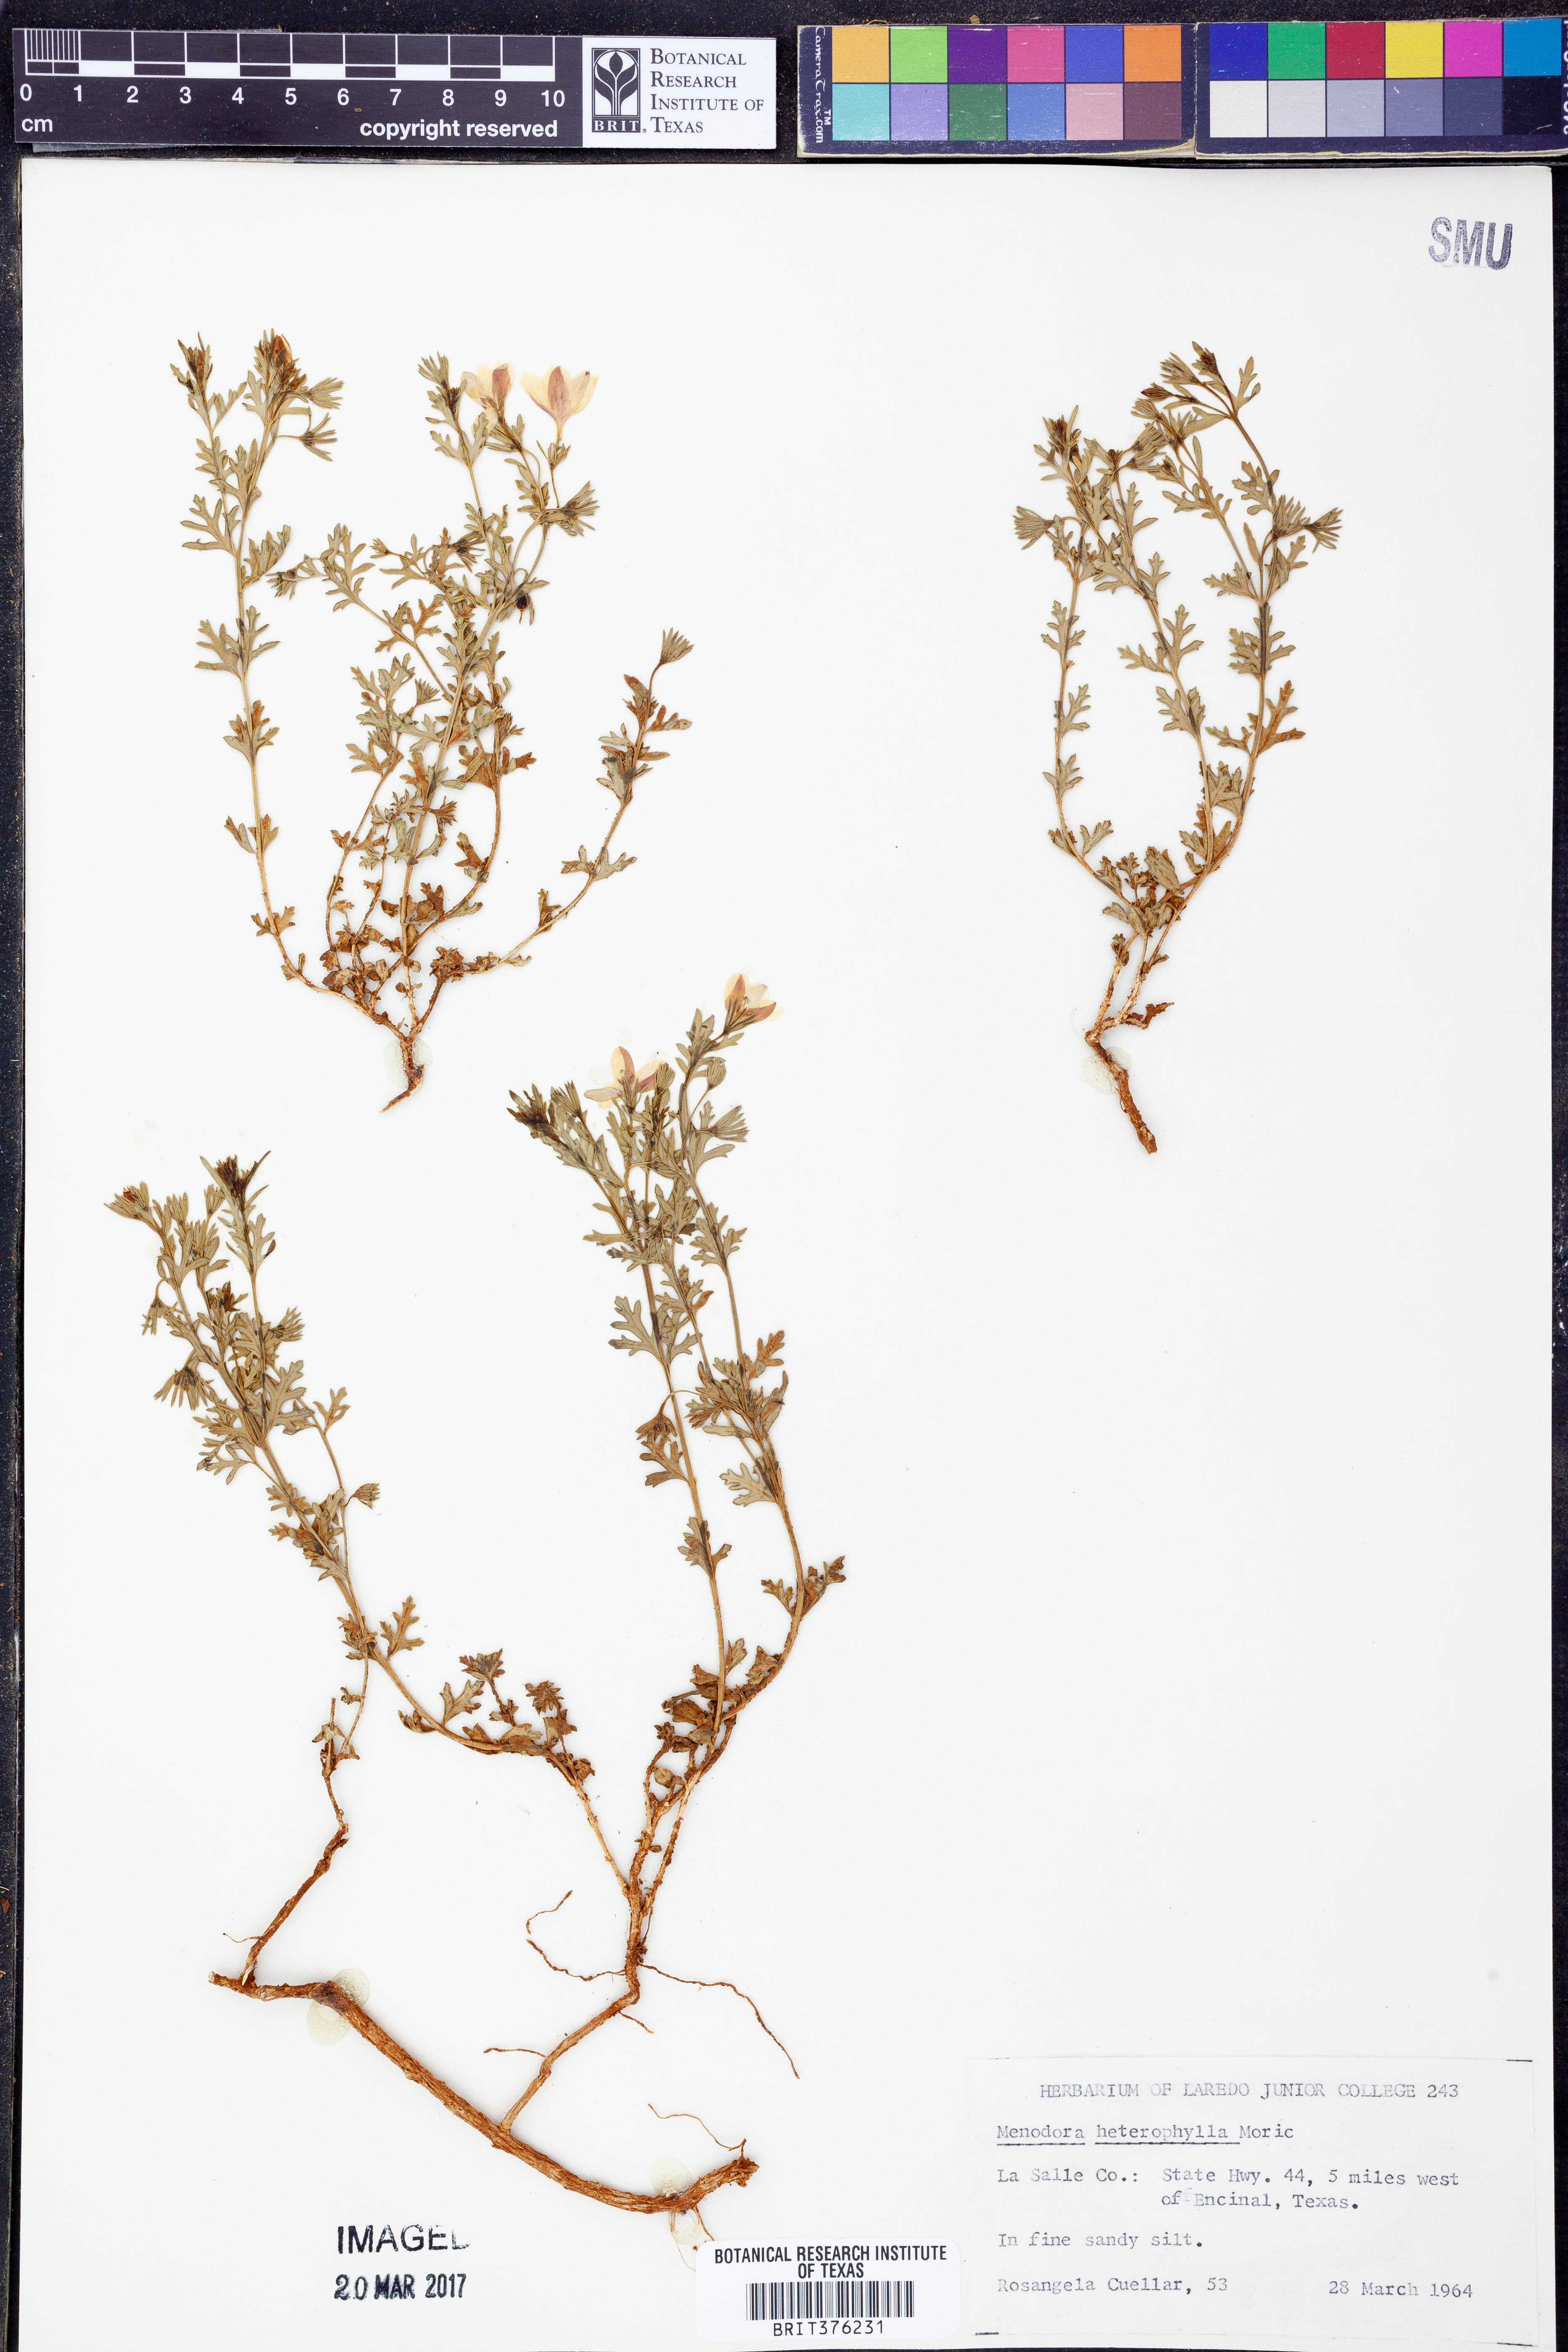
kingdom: Plantae
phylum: Tracheophyta
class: Magnoliopsida
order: Lamiales
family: Oleaceae
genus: Menodora
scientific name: Menodora heterophylla
